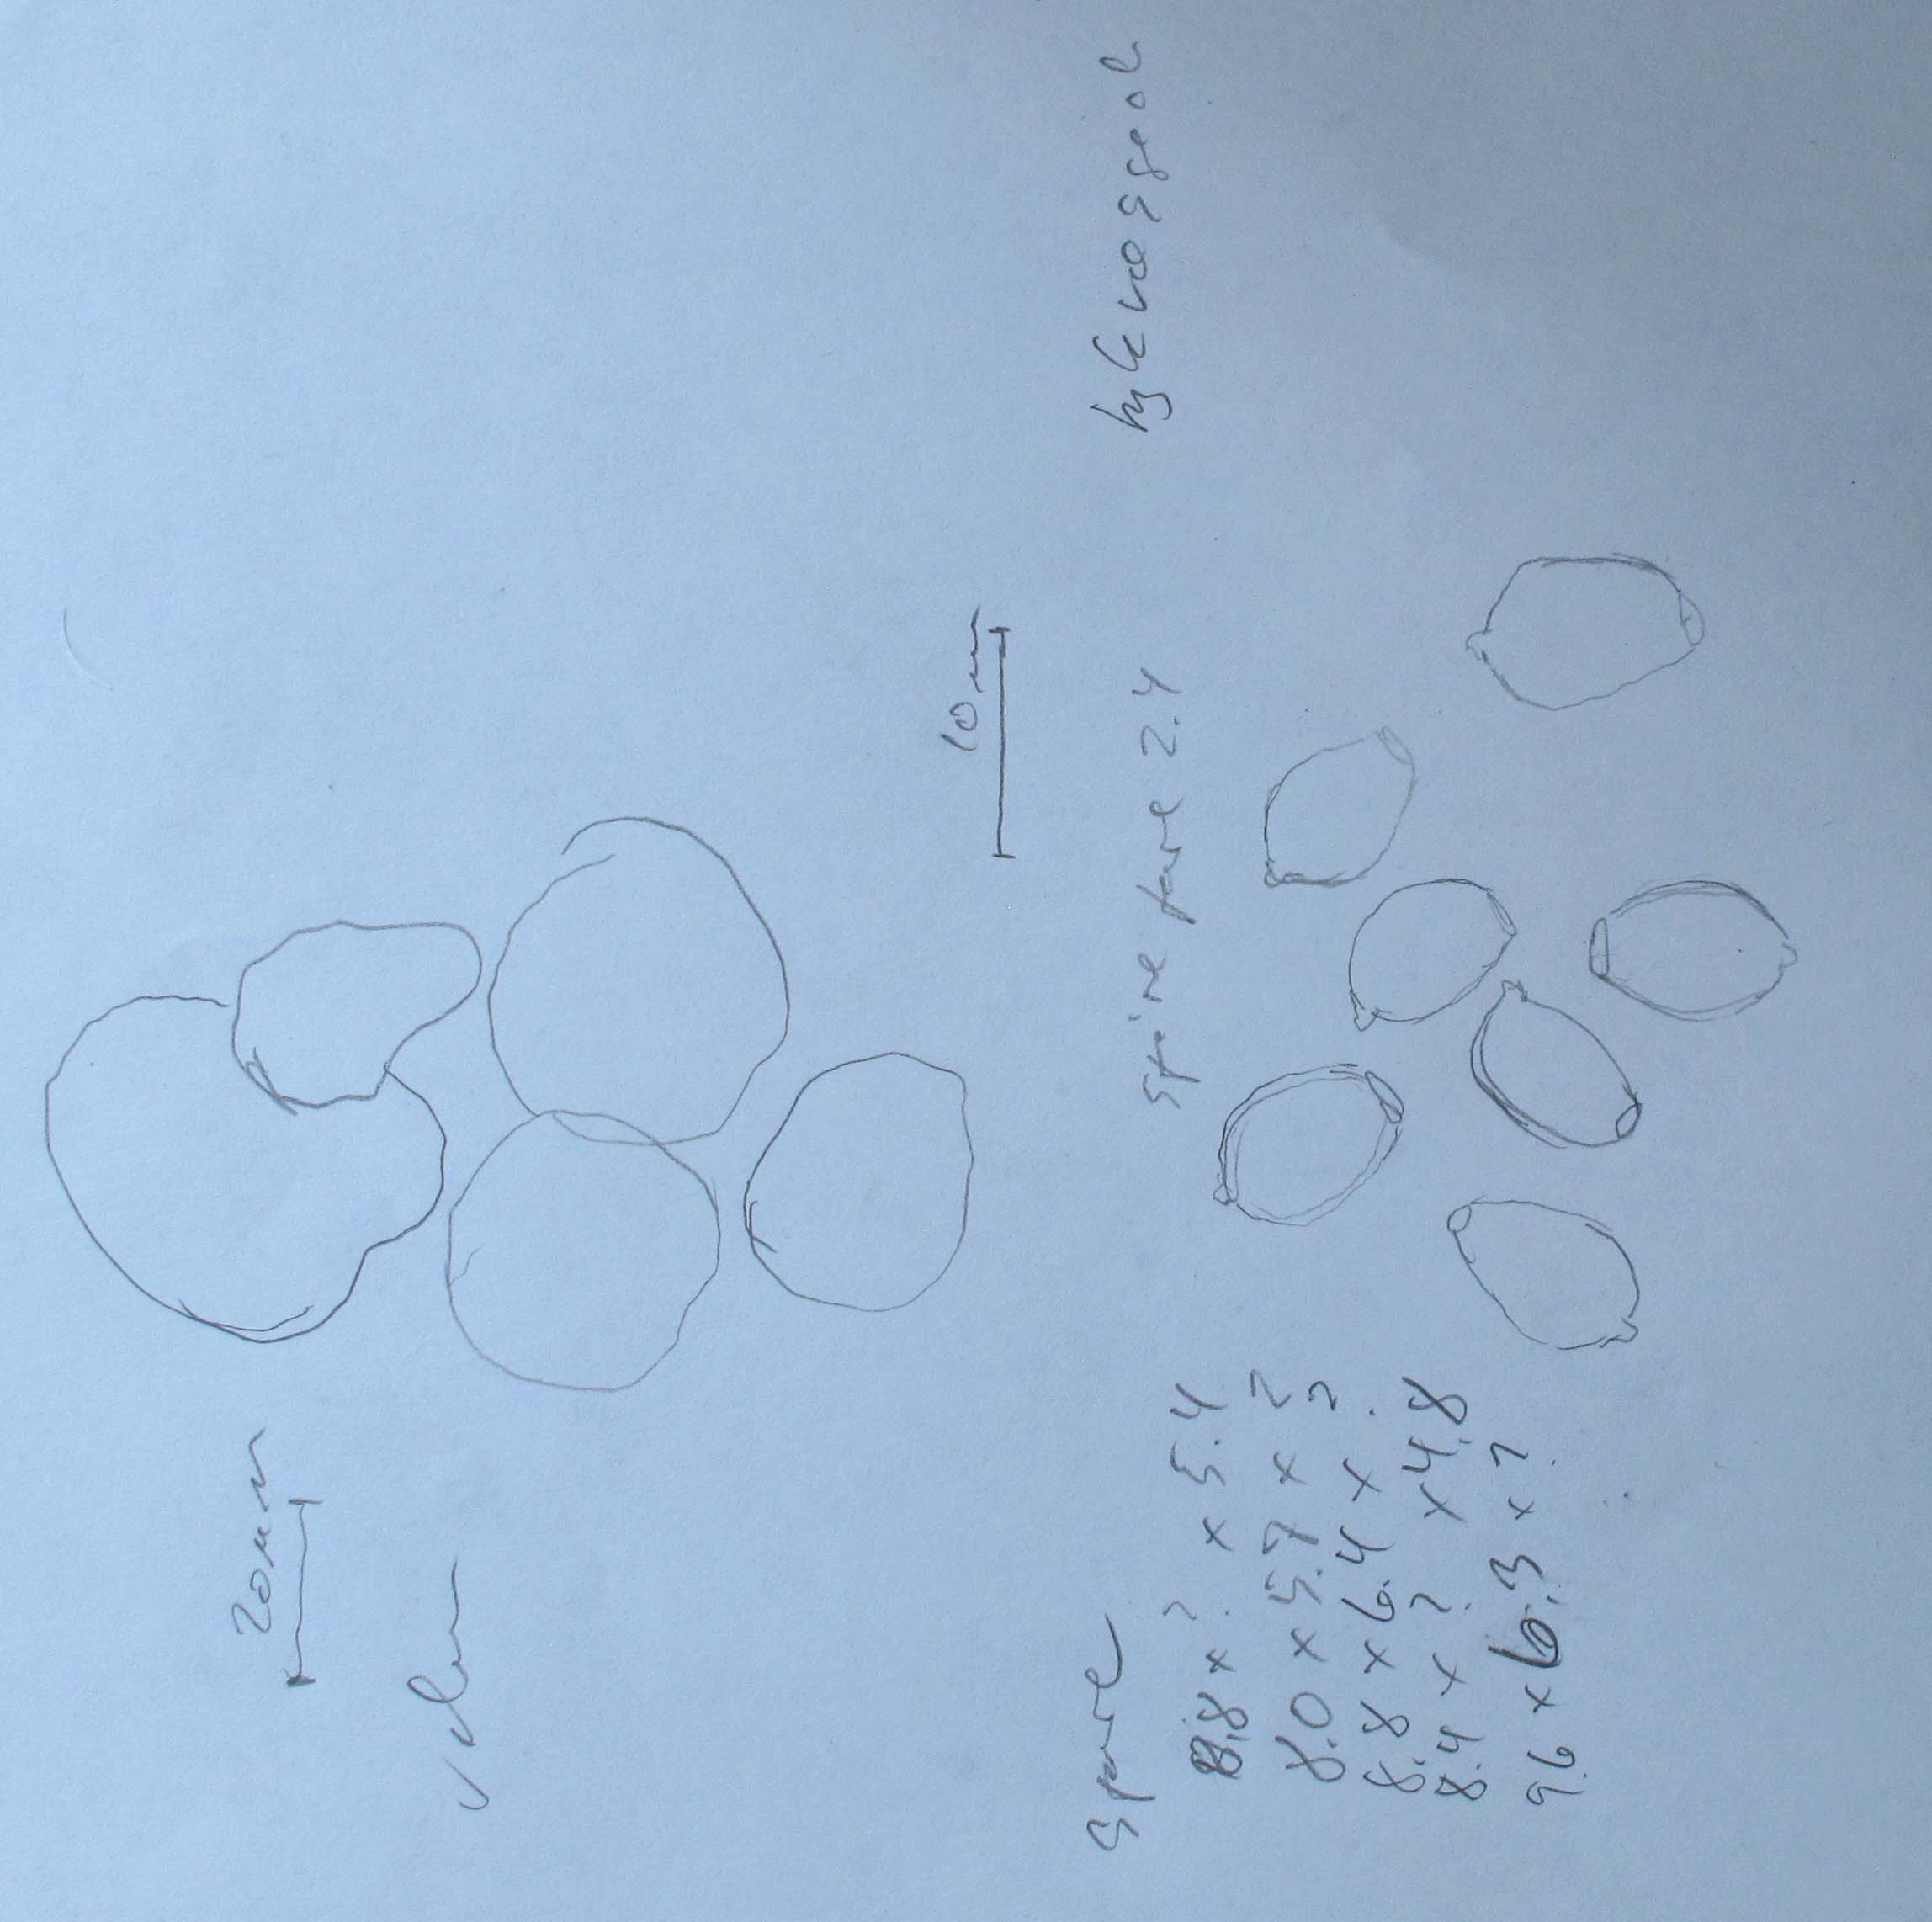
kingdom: Fungi
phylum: Basidiomycota
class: Agaricomycetes
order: Agaricales
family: Psathyrellaceae
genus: Coprinellus
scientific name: Coprinellus saccharinus
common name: sukker-blækhat
